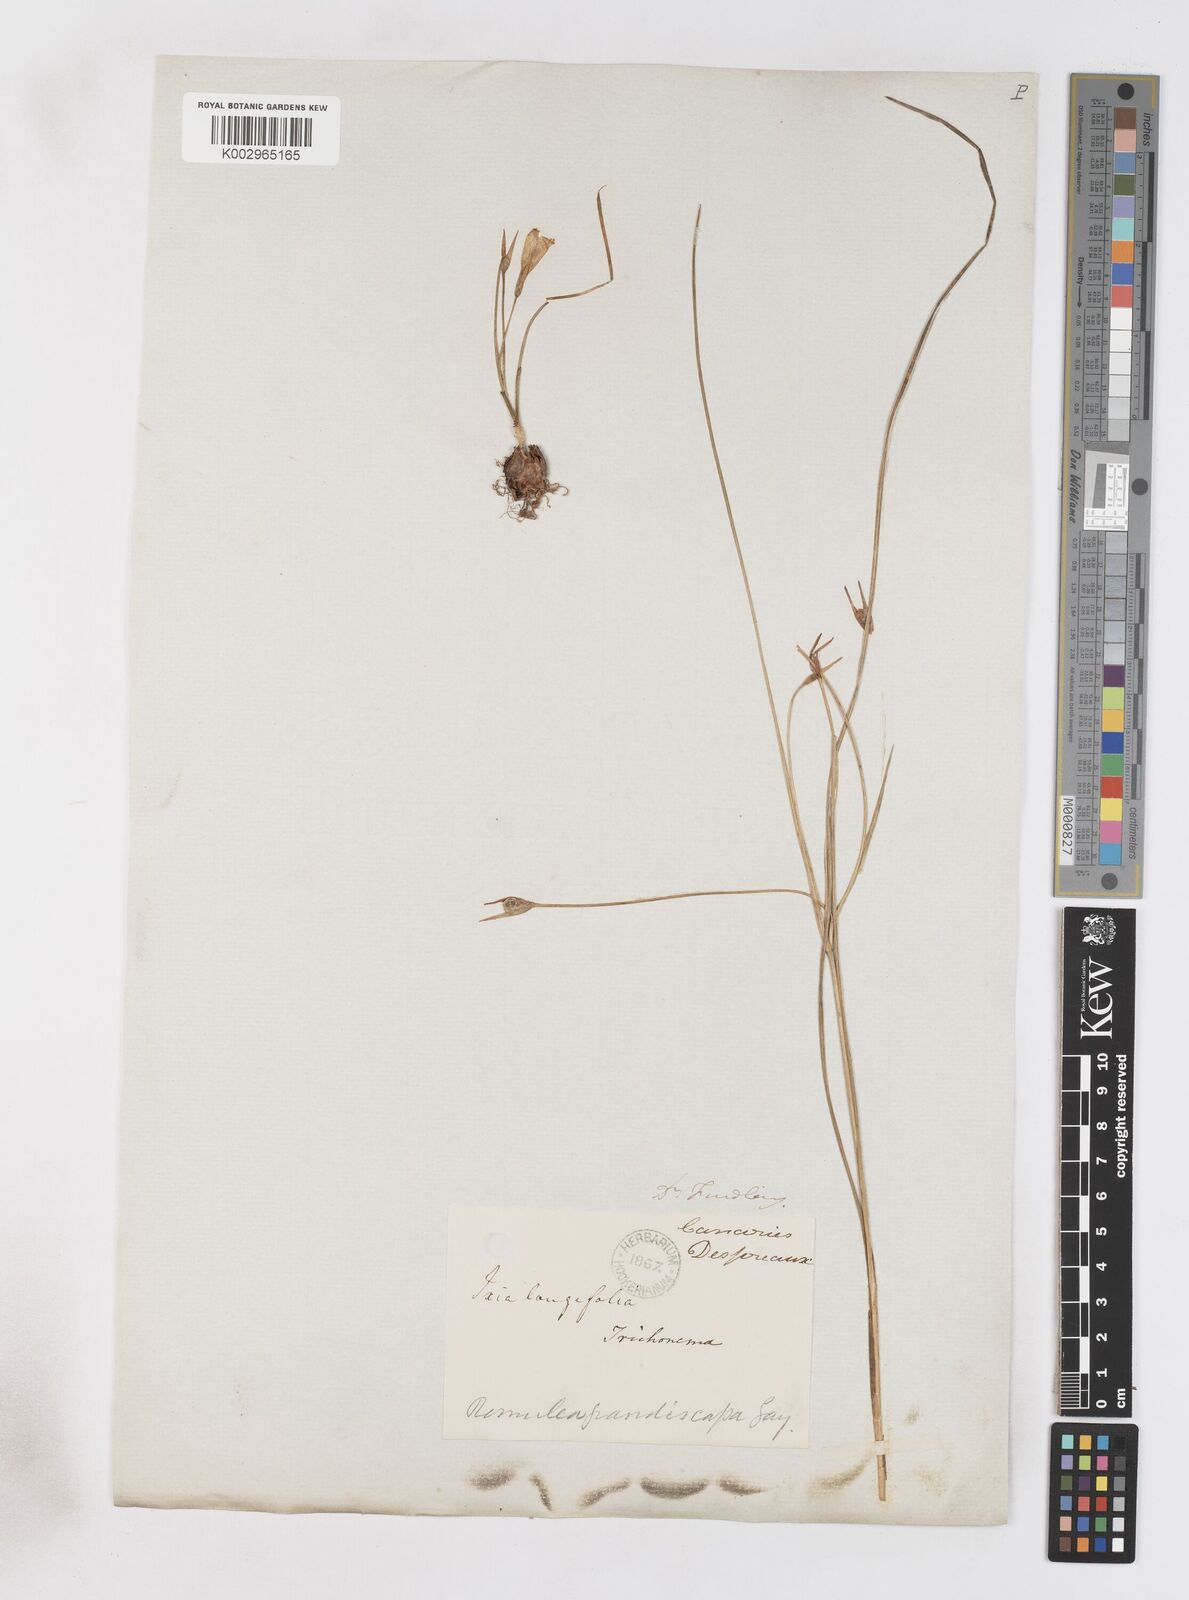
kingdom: Plantae
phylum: Tracheophyta
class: Liliopsida
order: Asparagales
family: Iridaceae
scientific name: Iridaceae
